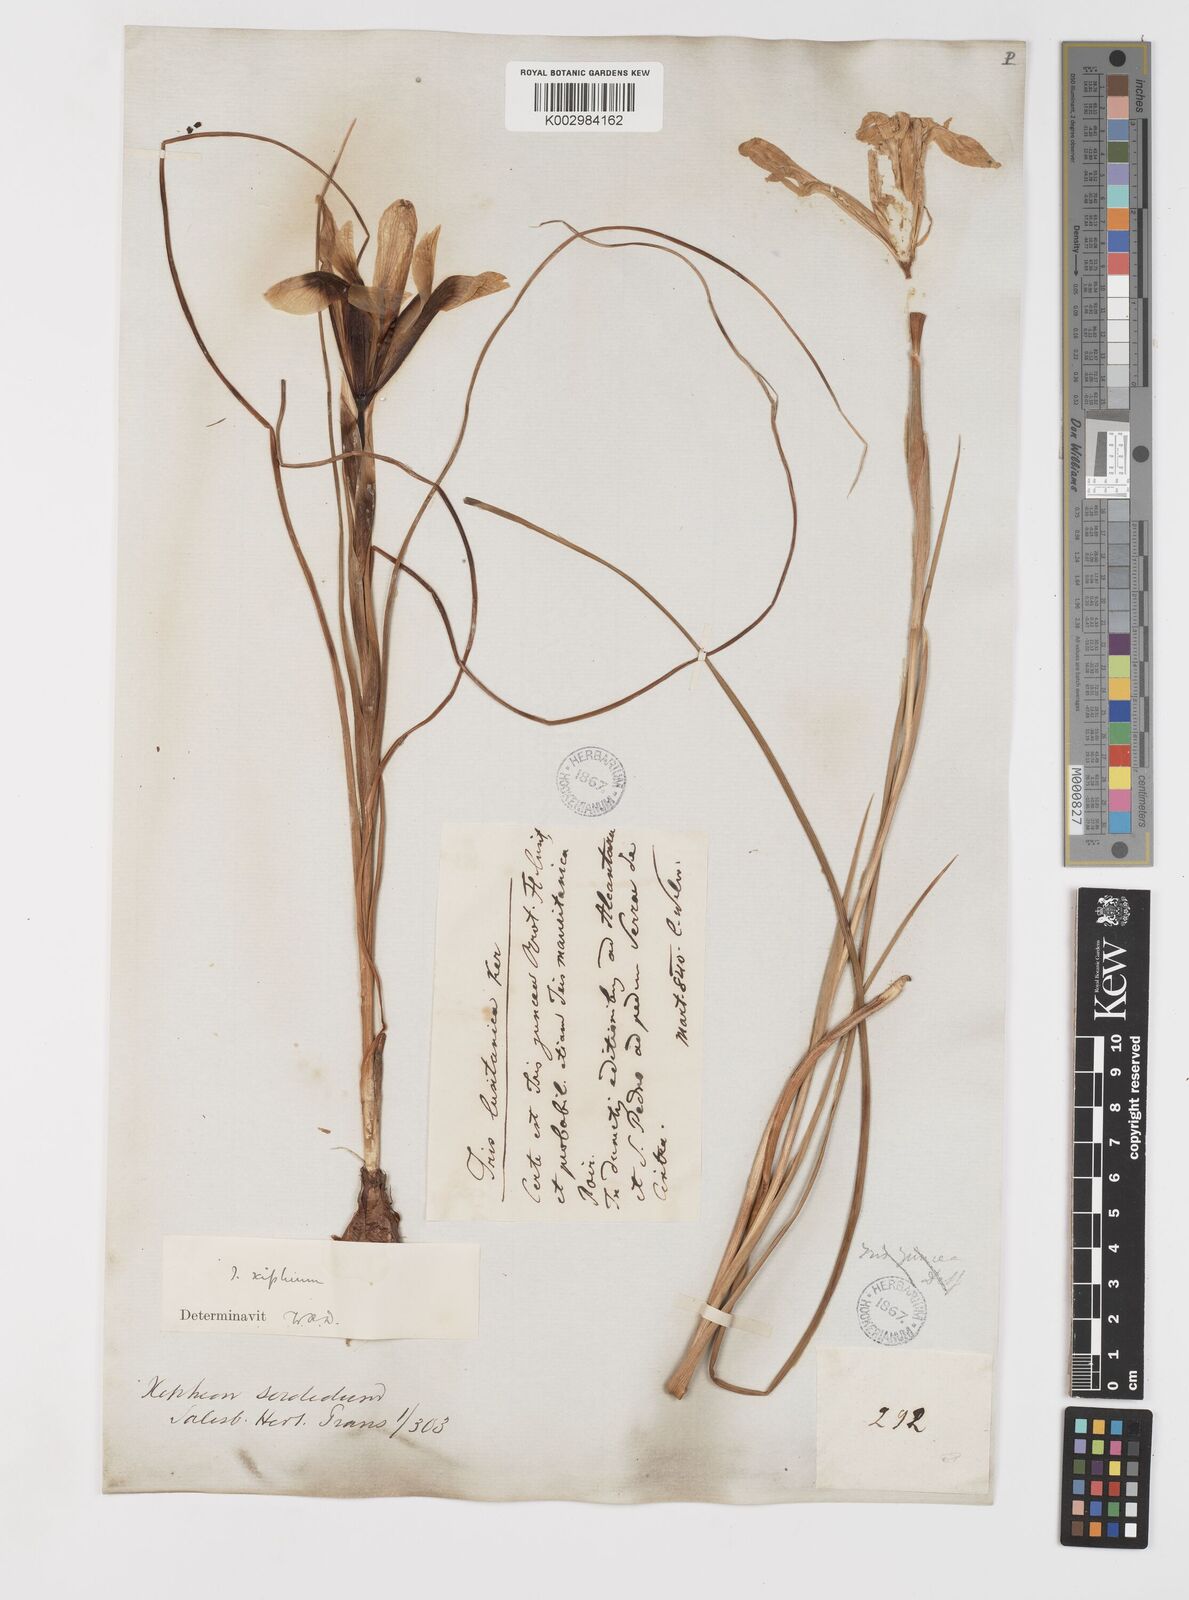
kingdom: Plantae
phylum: Tracheophyta
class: Liliopsida
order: Asparagales
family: Iridaceae
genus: Iris
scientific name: Iris xiphium
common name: Spanish iris
